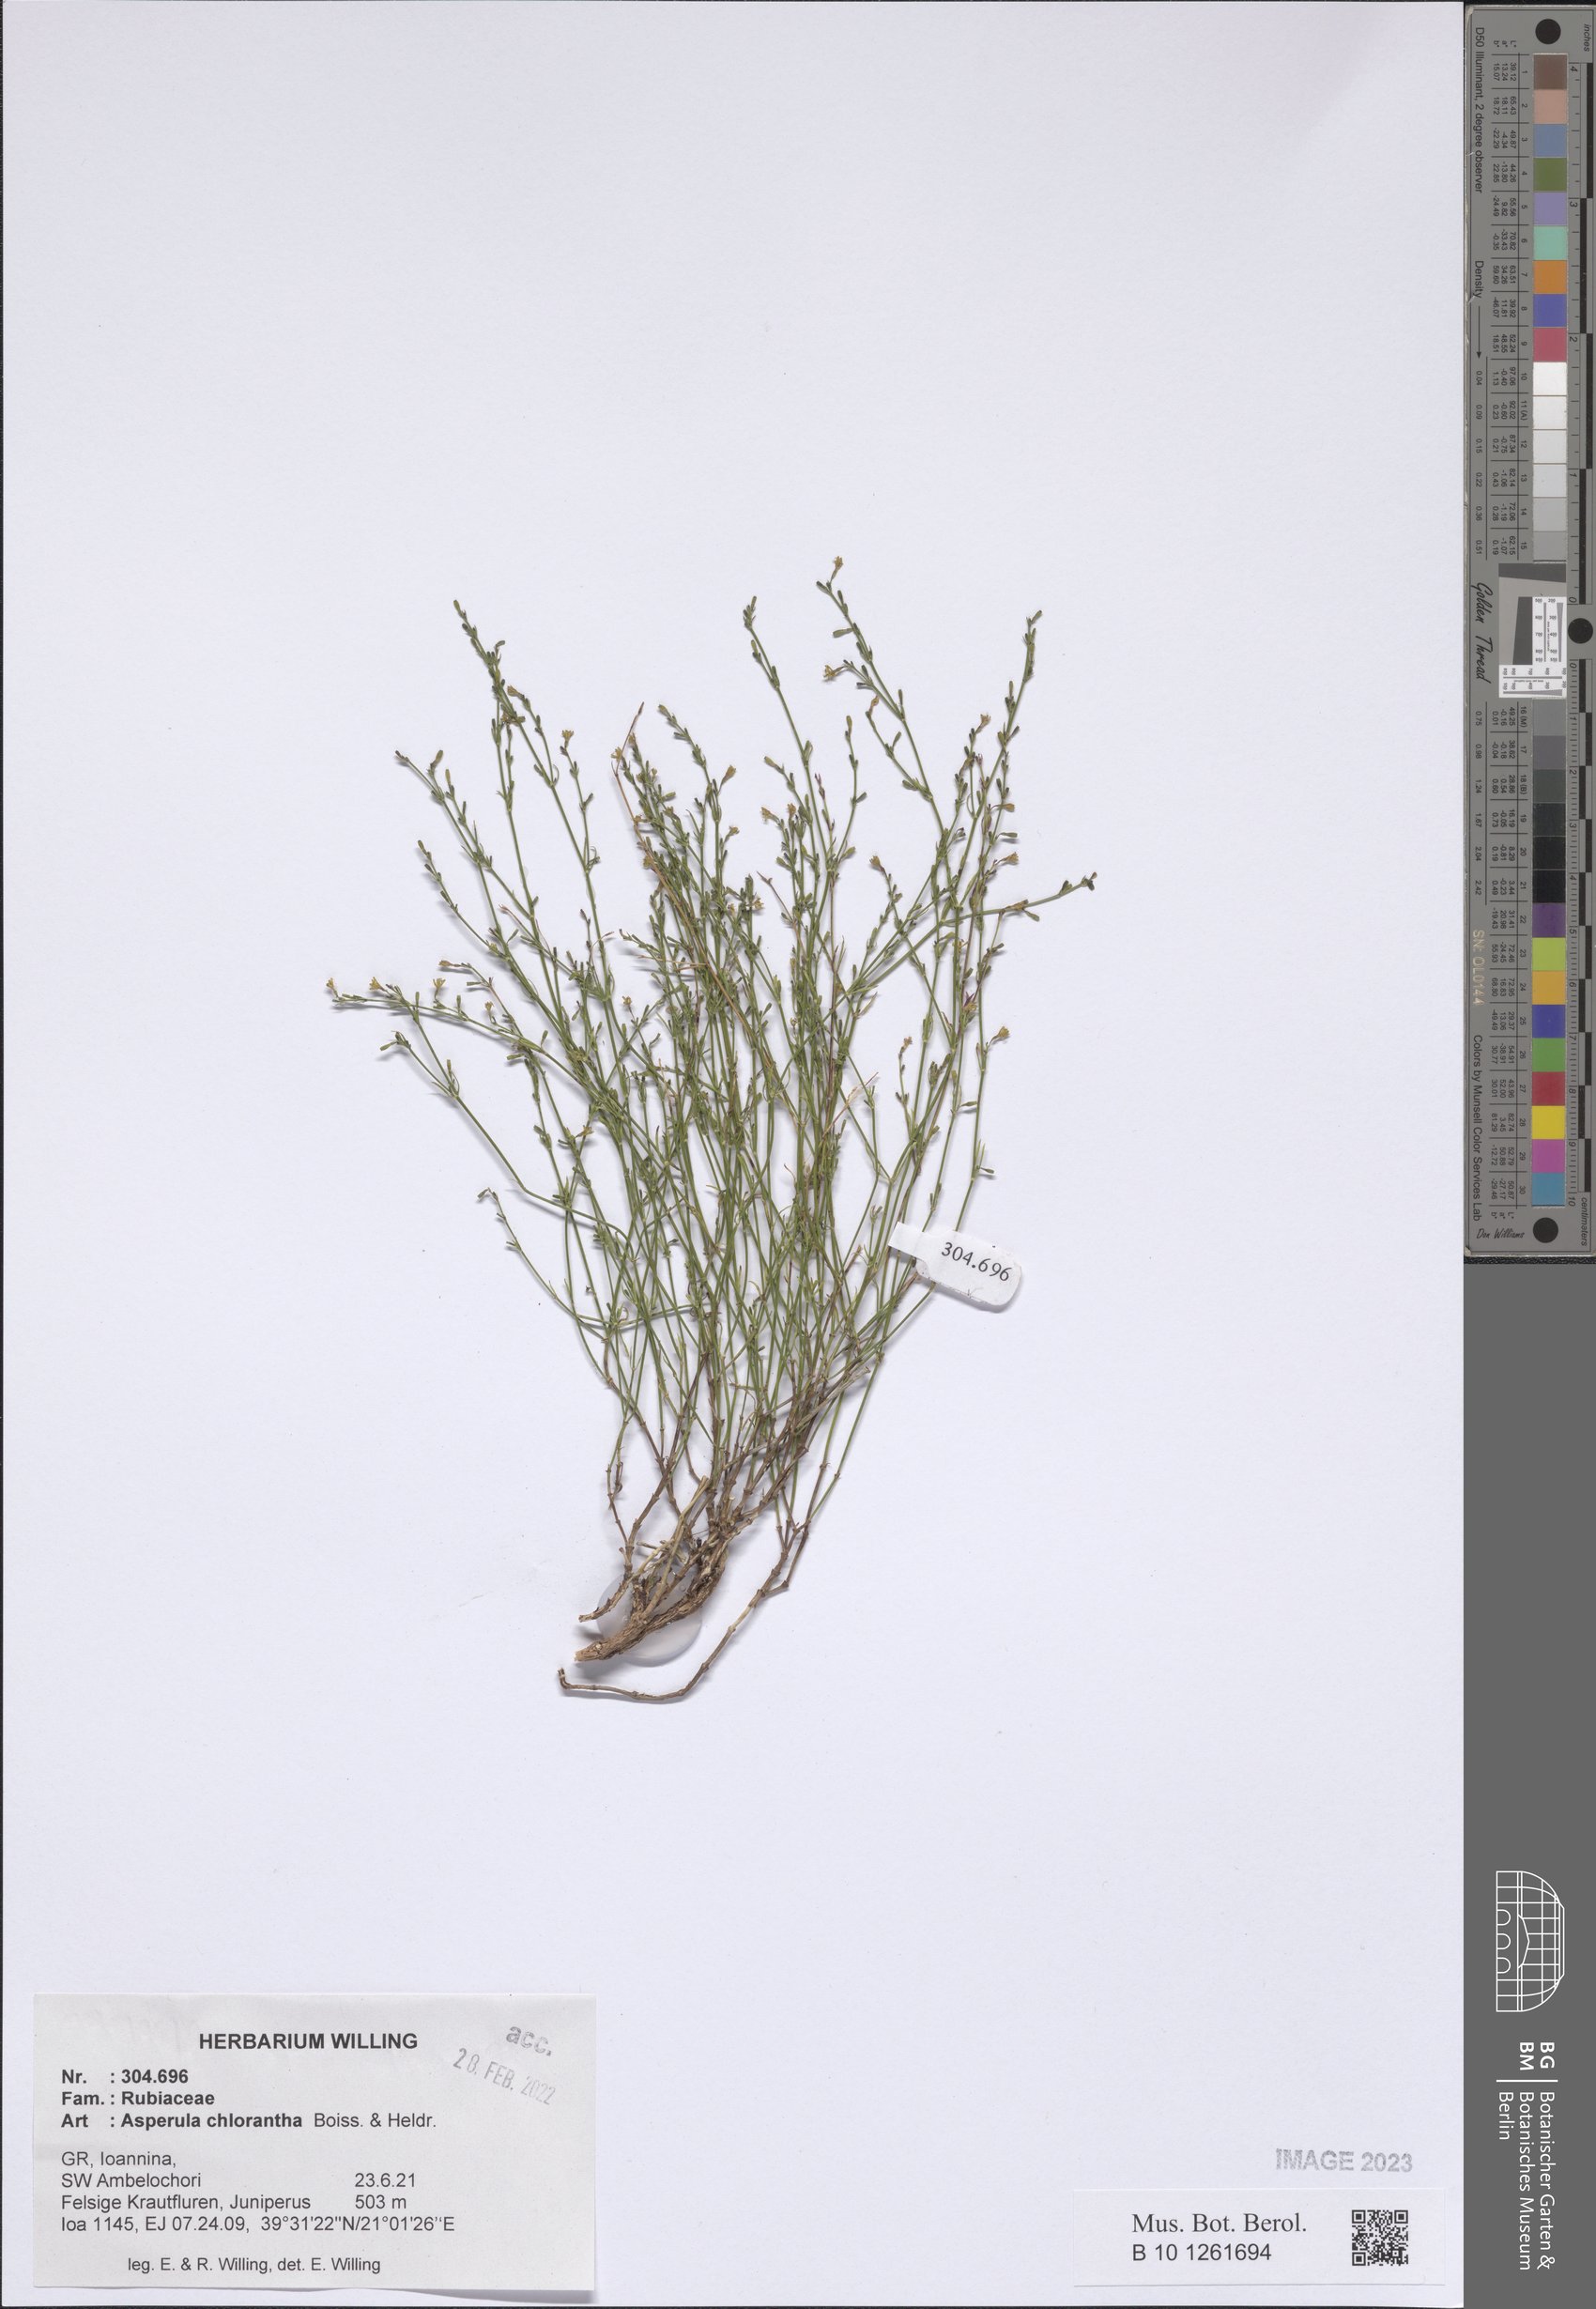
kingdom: Plantae
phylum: Tracheophyta
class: Magnoliopsida
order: Gentianales
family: Rubiaceae
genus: Thliphthisa
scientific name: Thliphthisa chlorantha
